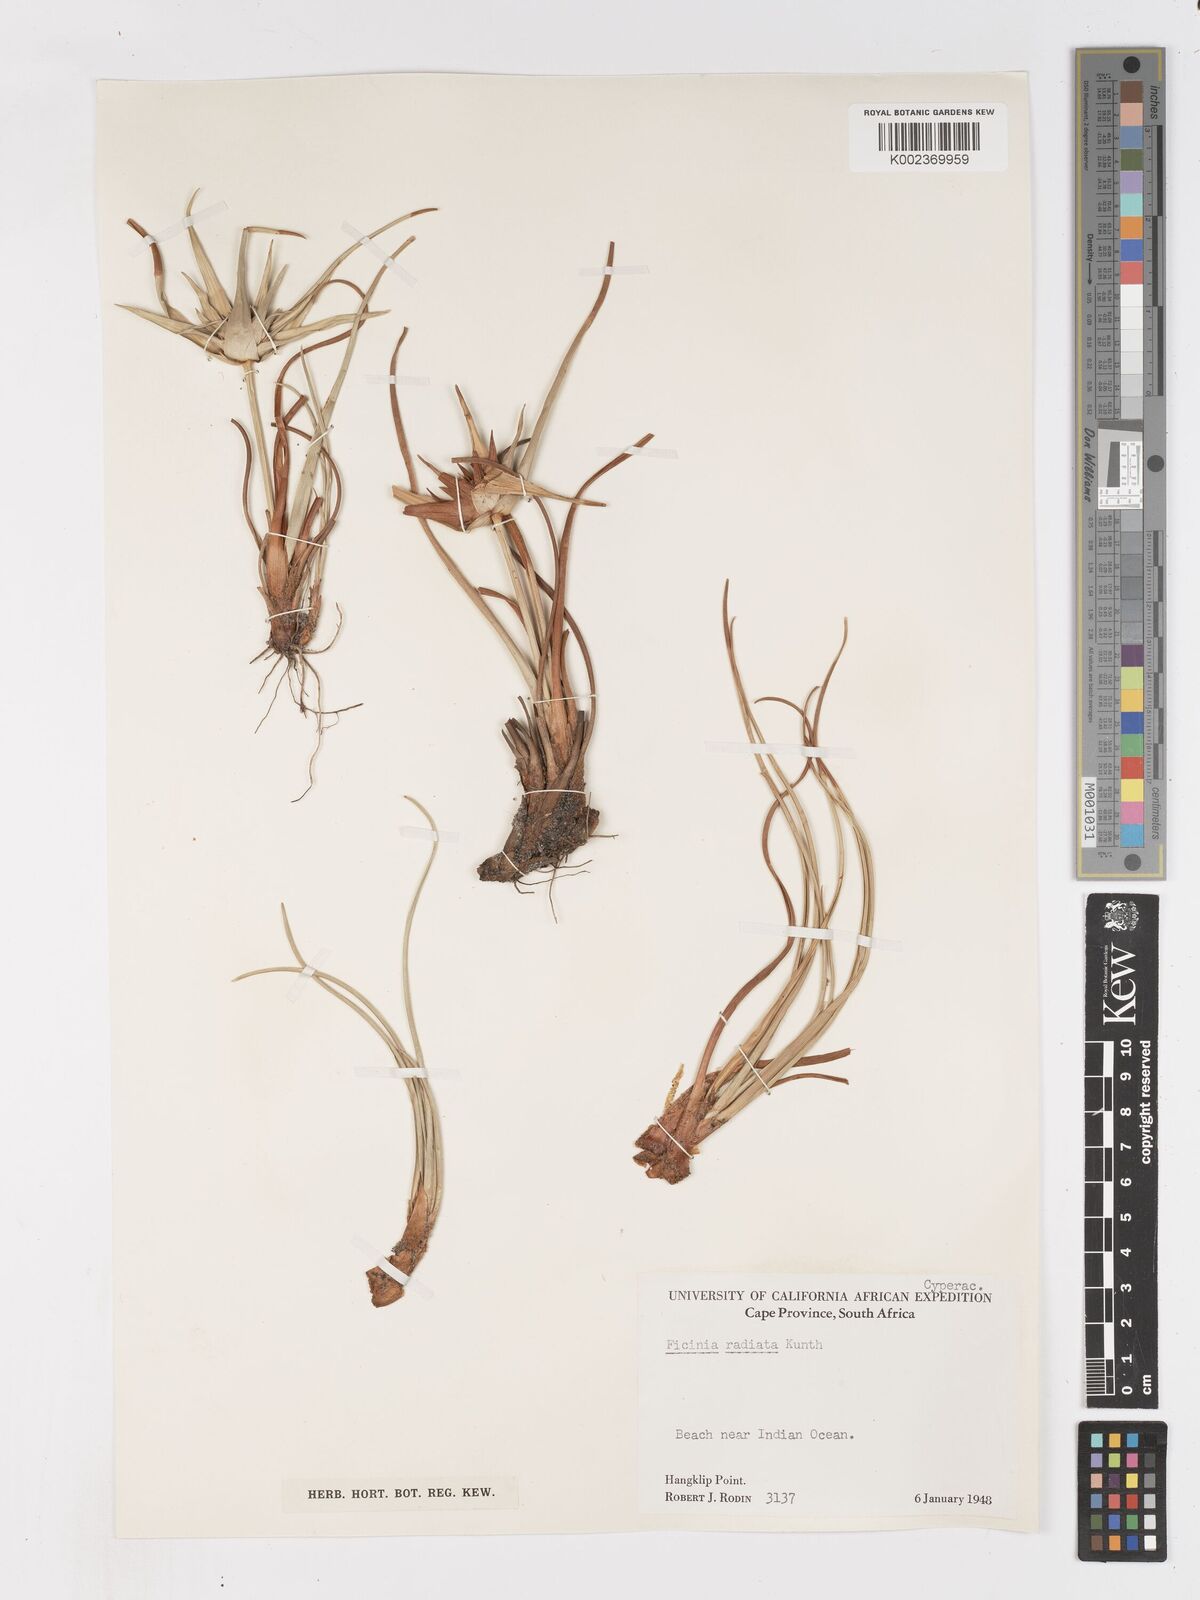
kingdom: Plantae
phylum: Tracheophyta
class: Liliopsida
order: Poales
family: Cyperaceae
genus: Ficinia
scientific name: Ficinia radiata
